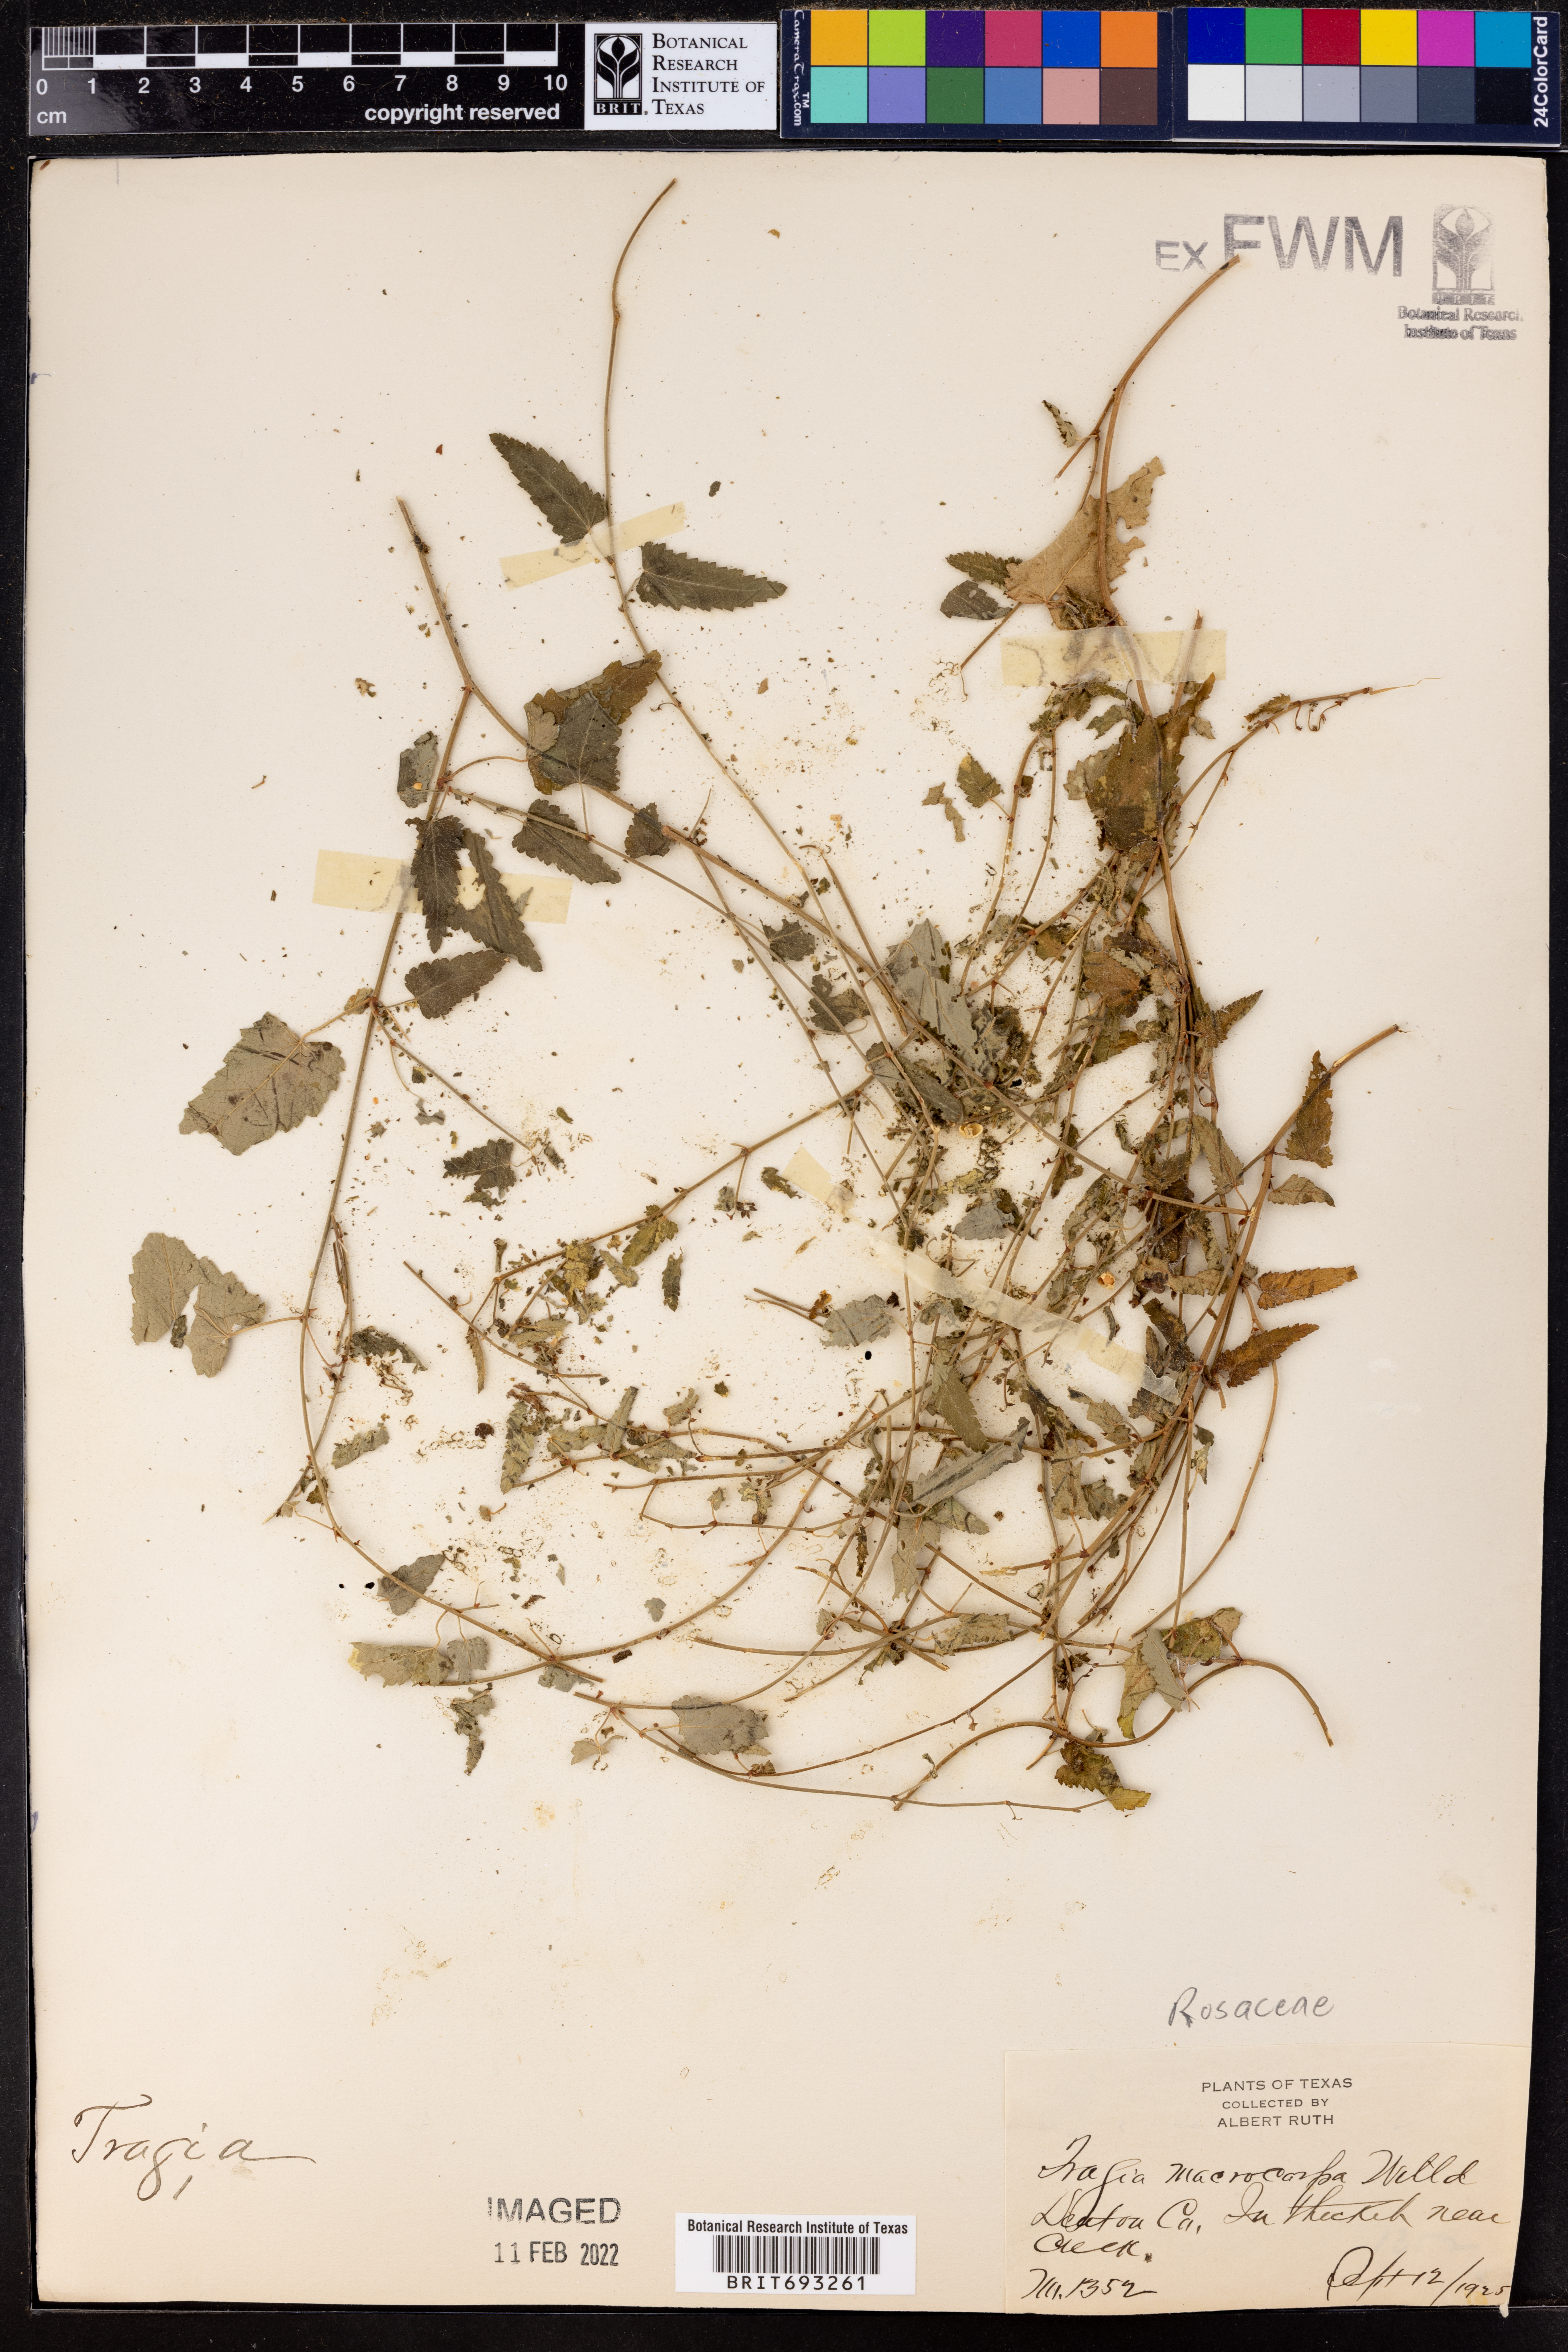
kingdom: Plantae
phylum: Tracheophyta
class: Magnoliopsida
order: Malpighiales
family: Euphorbiaceae
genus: Tragia
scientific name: Tragia cordata
